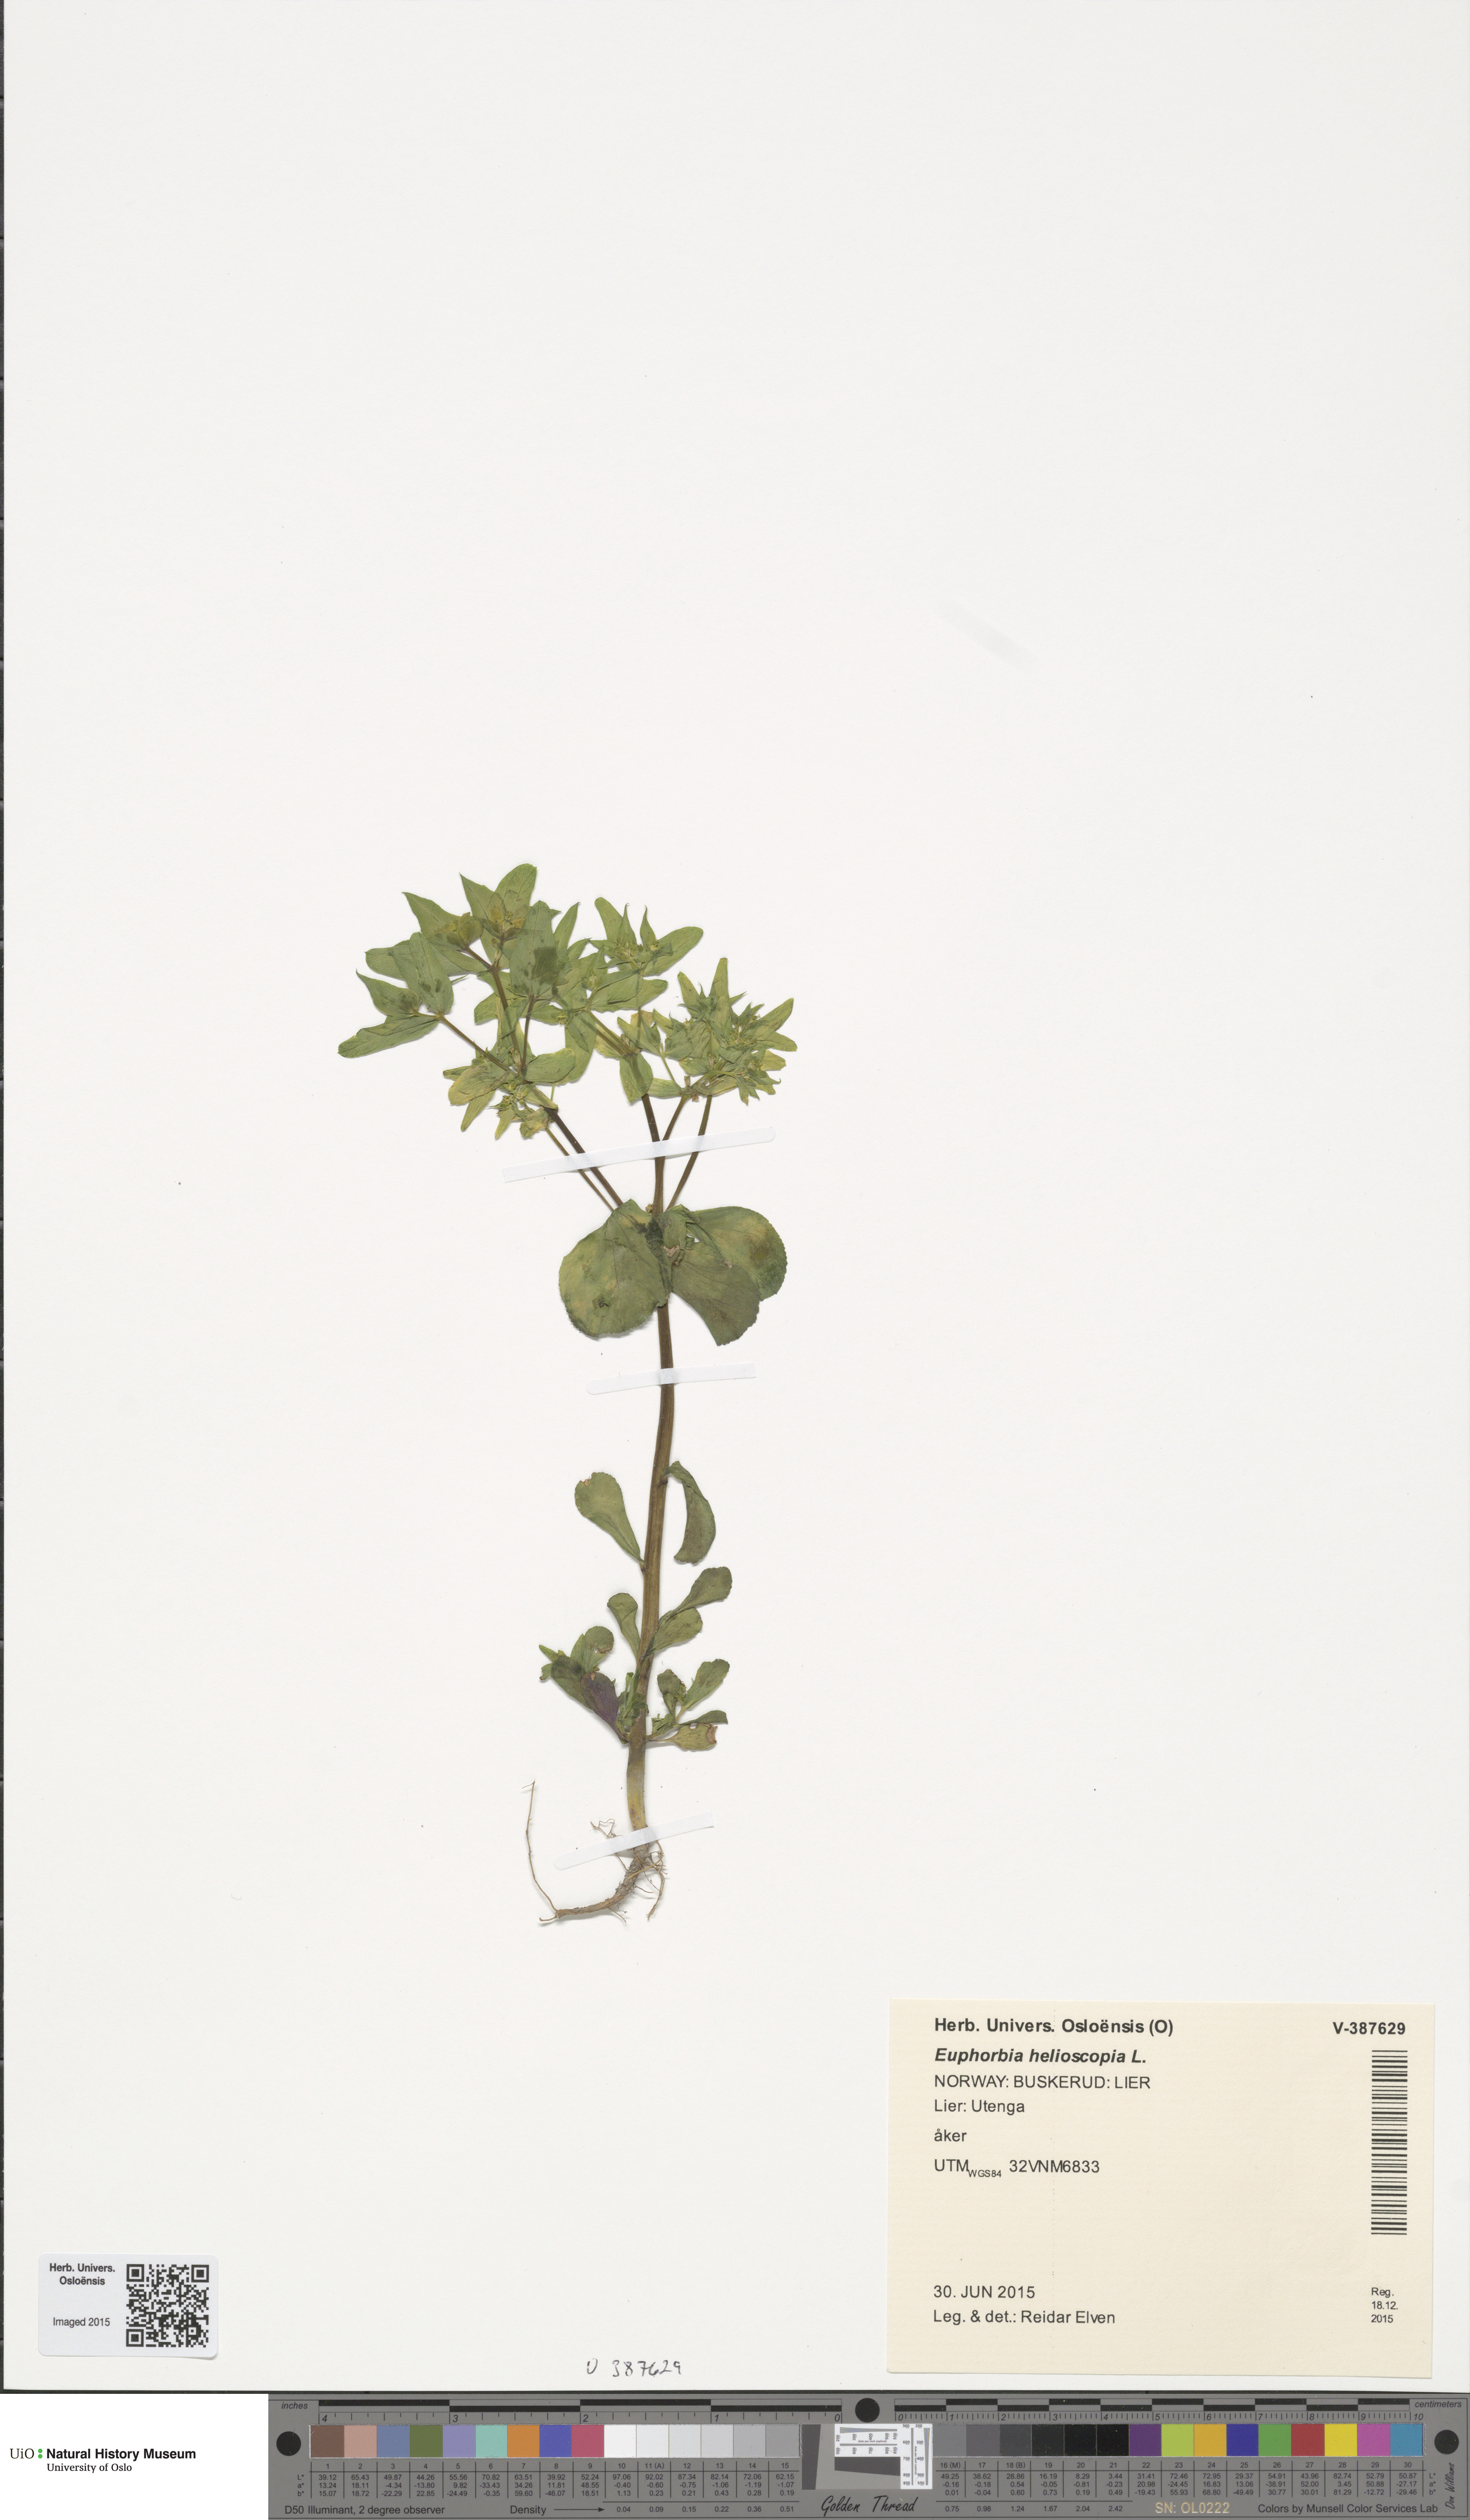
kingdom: Plantae
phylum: Tracheophyta
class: Magnoliopsida
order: Malpighiales
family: Euphorbiaceae
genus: Euphorbia
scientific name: Euphorbia helioscopia
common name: Sun spurge
